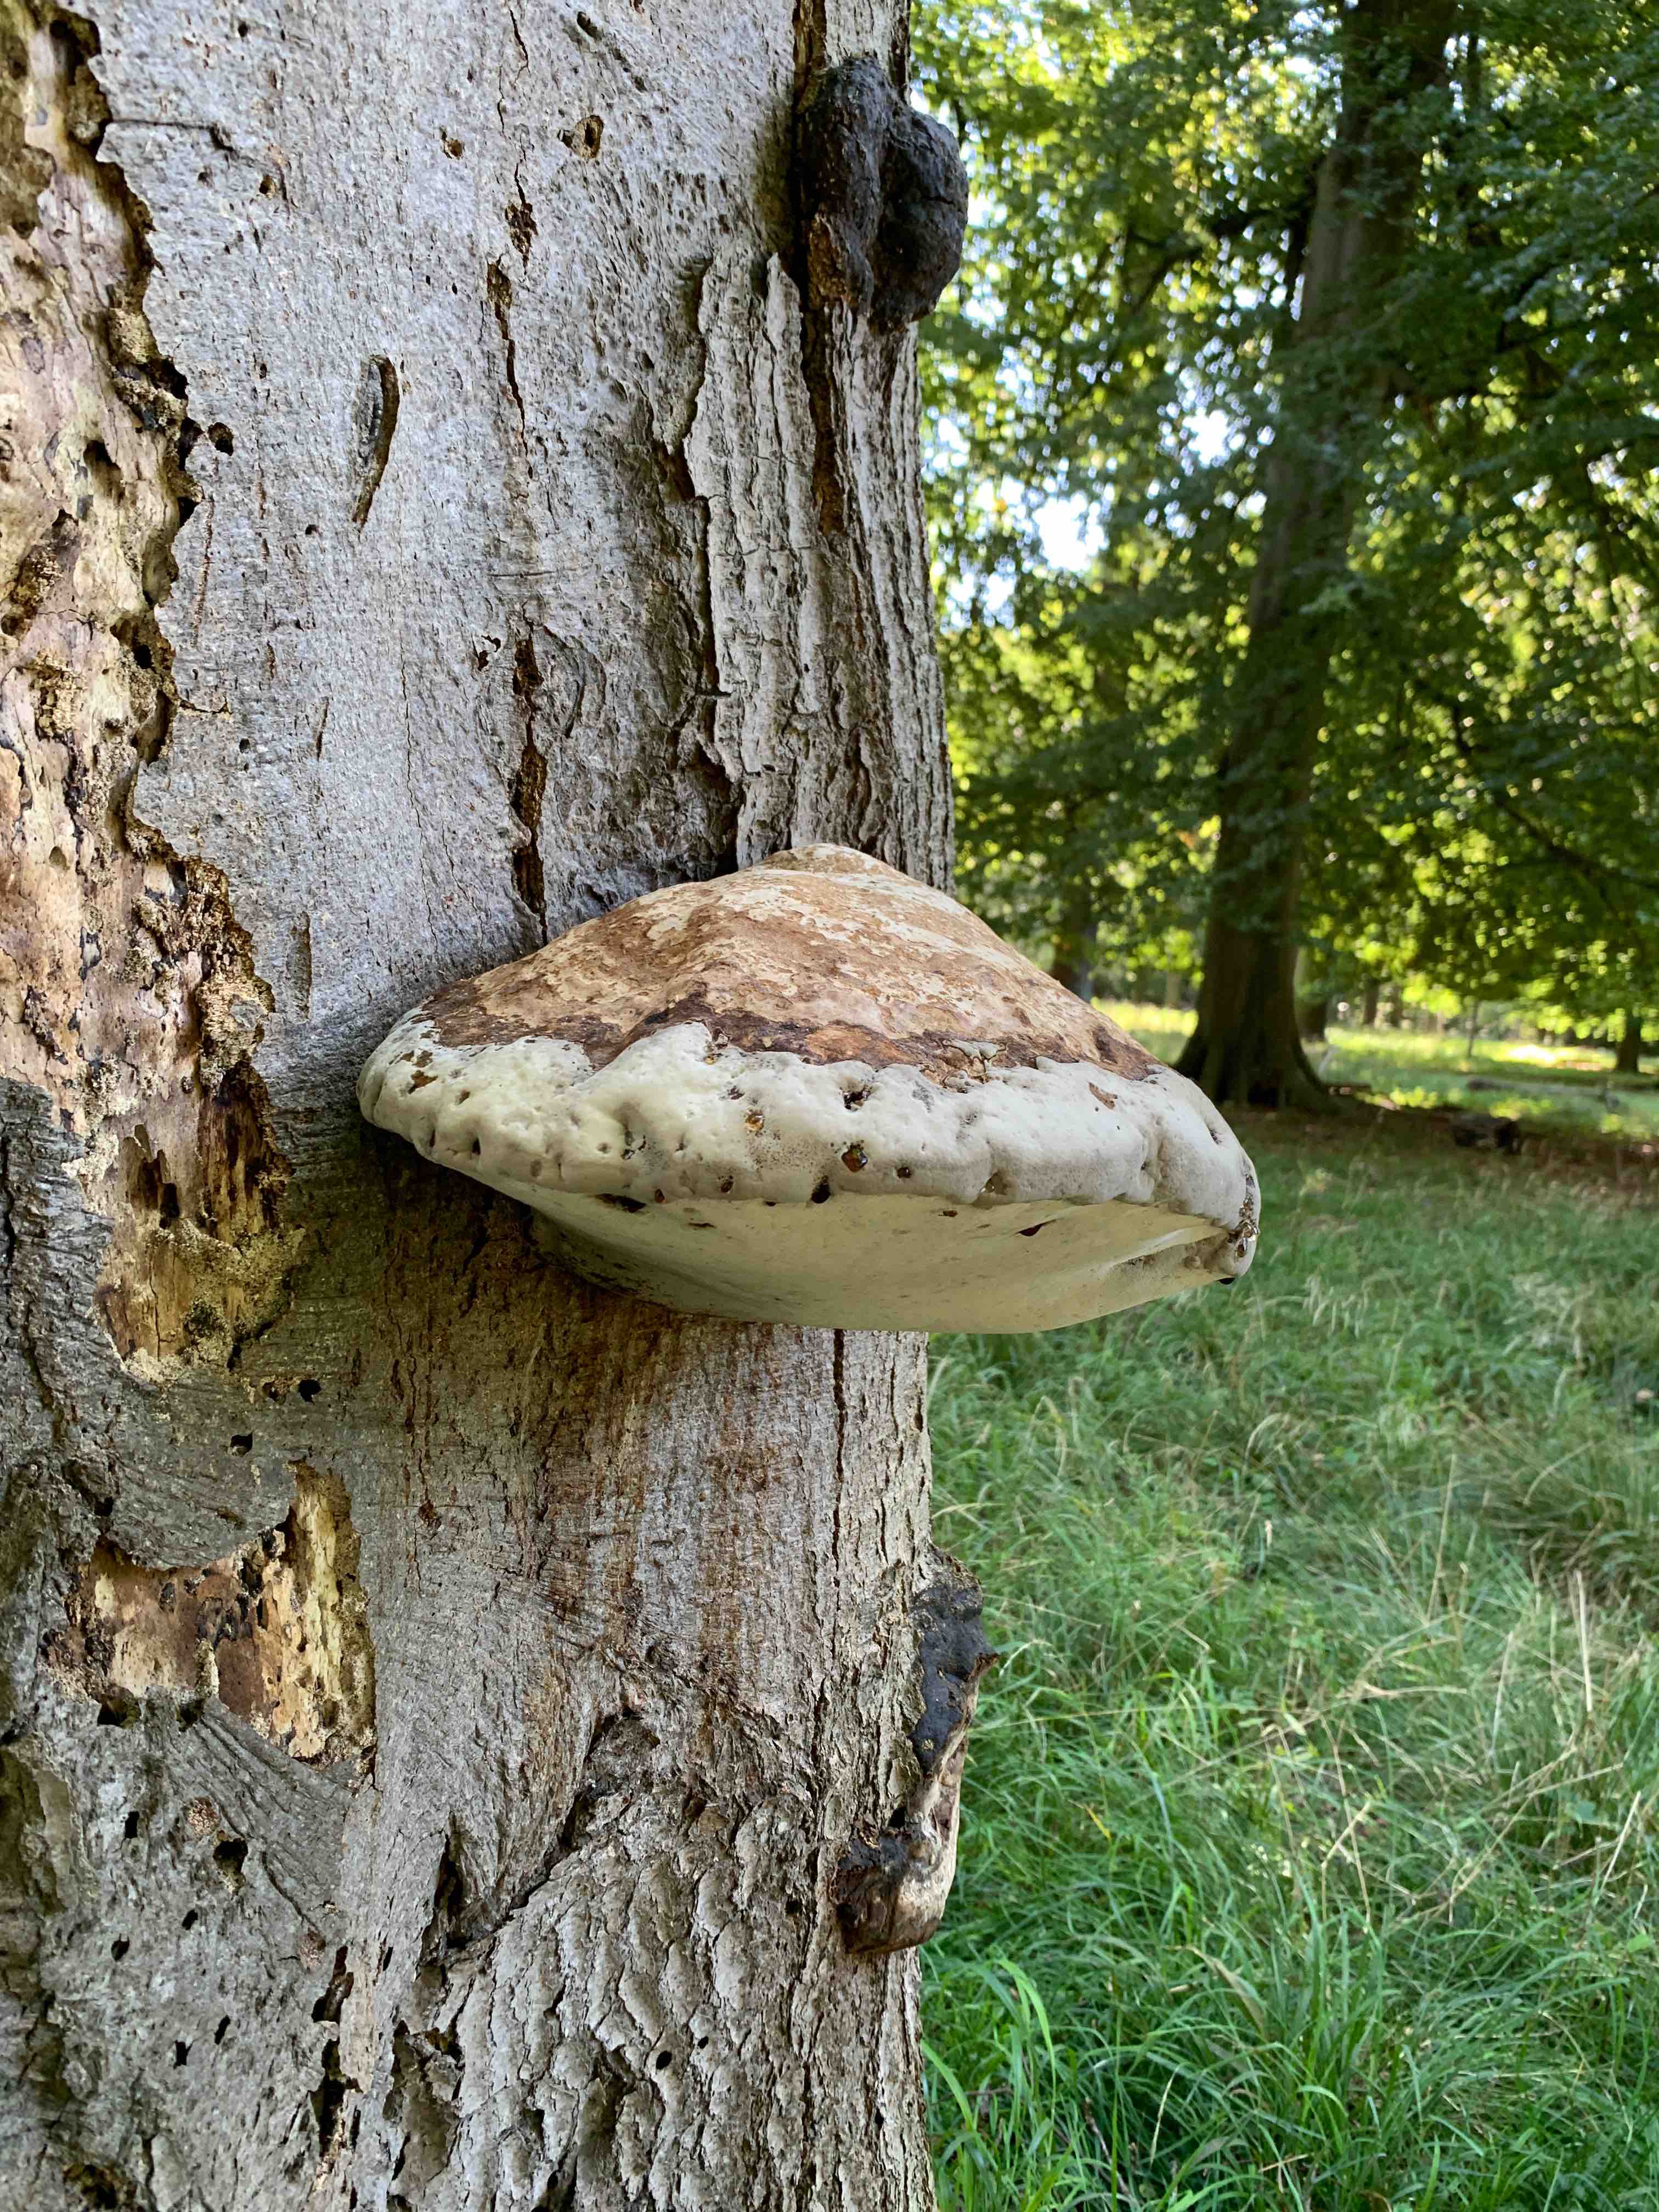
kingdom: Fungi
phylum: Basidiomycota
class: Agaricomycetes
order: Polyporales
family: Polyporaceae
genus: Fomes
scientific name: Fomes fomentarius
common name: tøndersvamp
